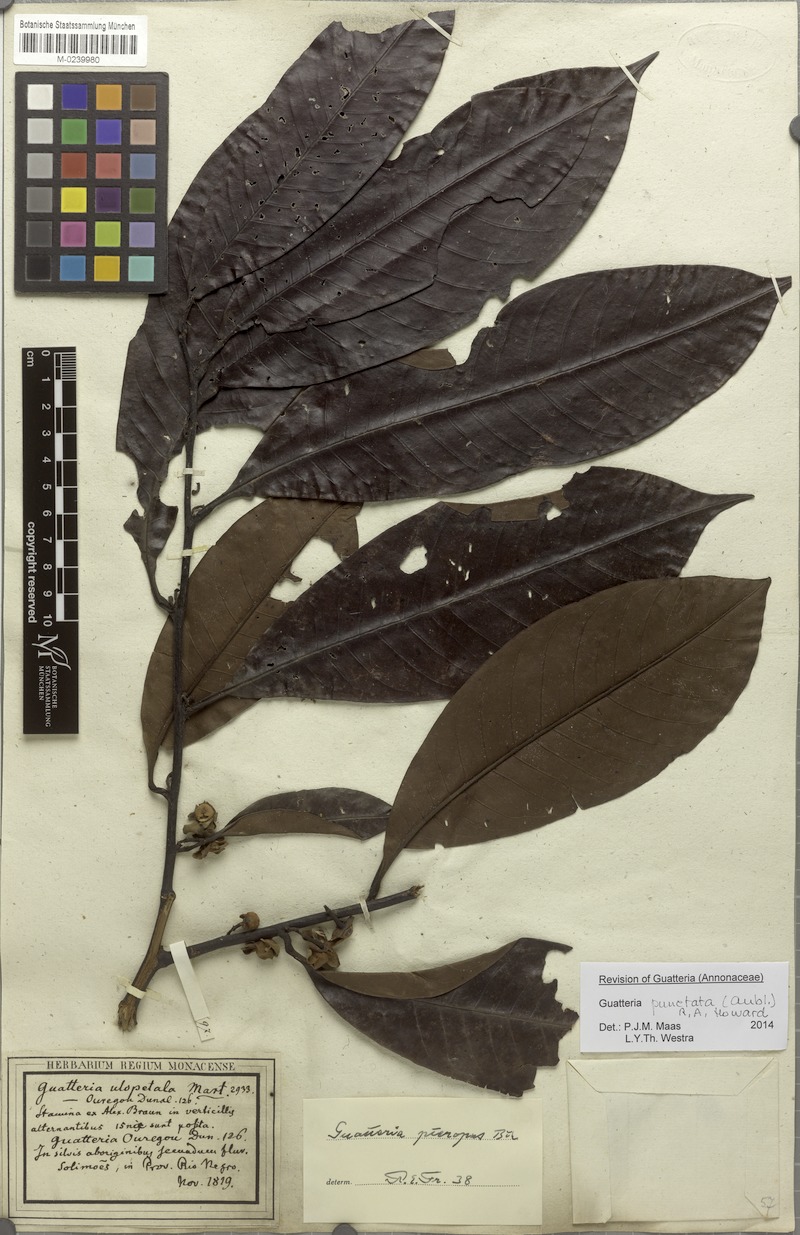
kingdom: Plantae
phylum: Tracheophyta
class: Magnoliopsida
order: Magnoliales
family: Annonaceae
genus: Guatteria
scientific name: Guatteria punctata
